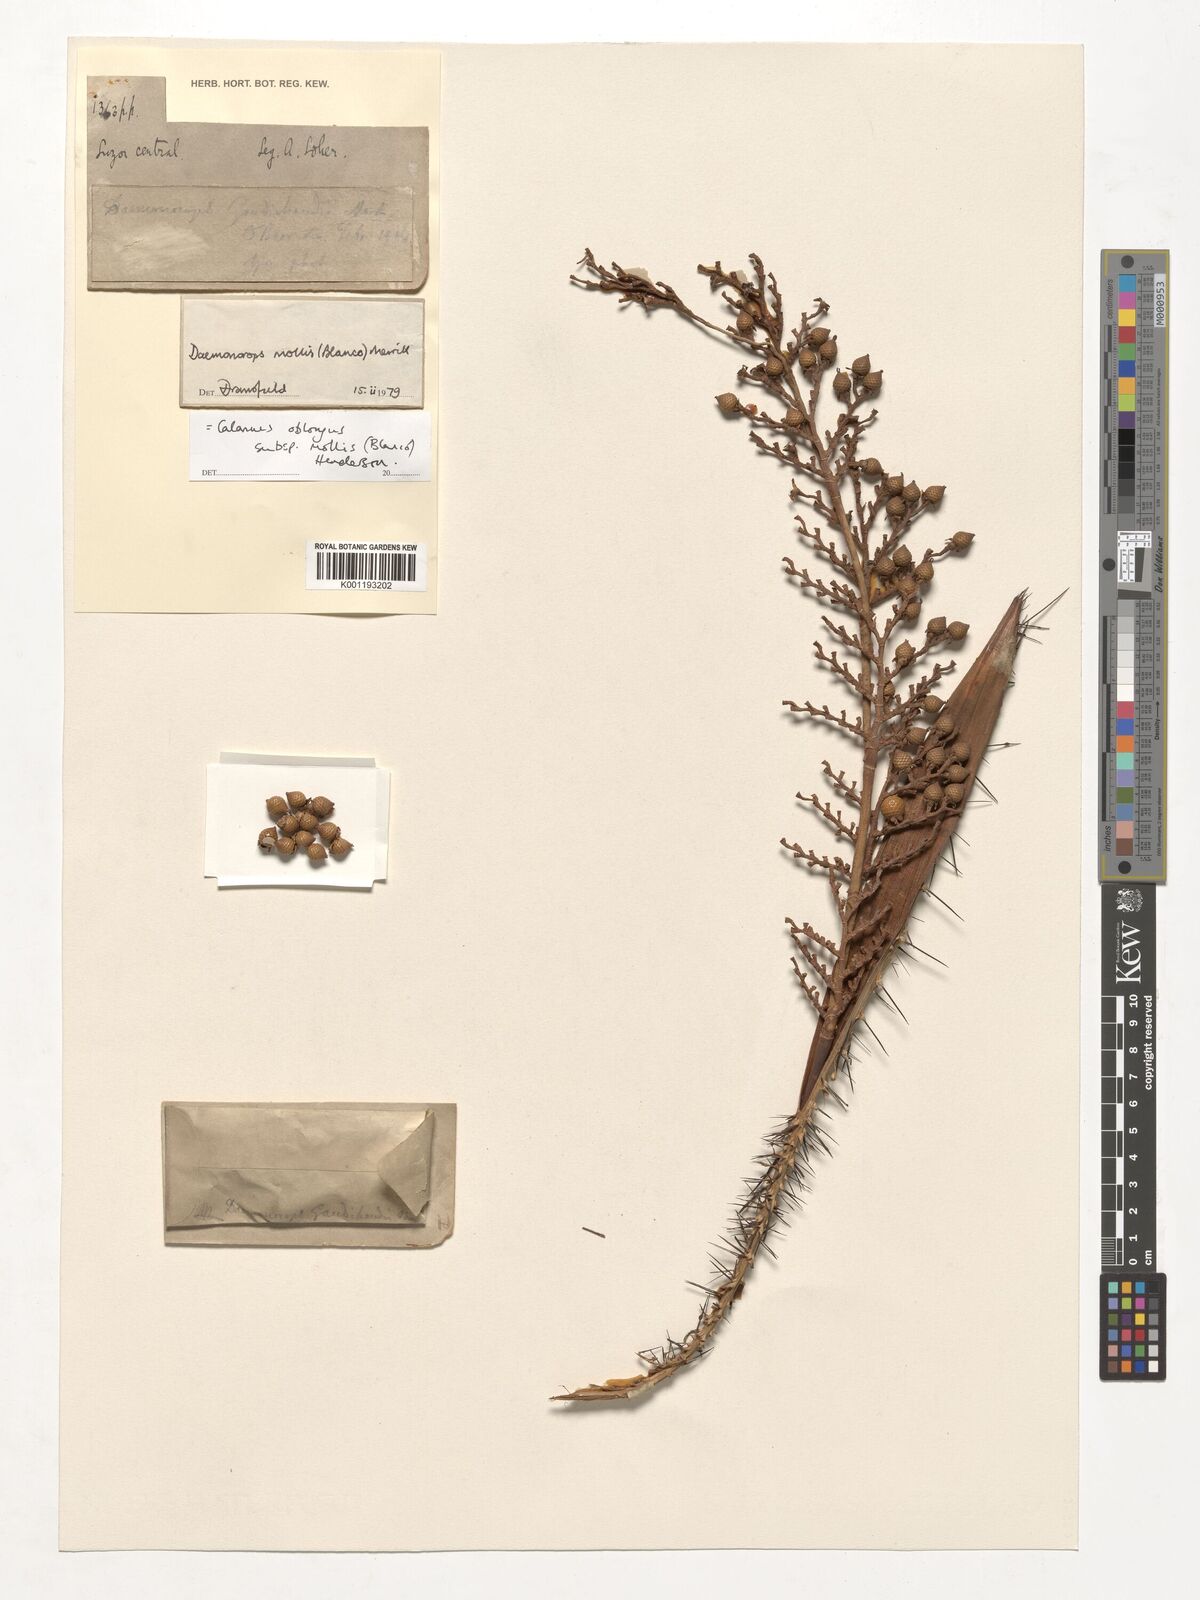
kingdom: Plantae
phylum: Tracheophyta
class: Liliopsida
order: Arecales
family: Arecaceae
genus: Calamus
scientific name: Calamus oblongus
